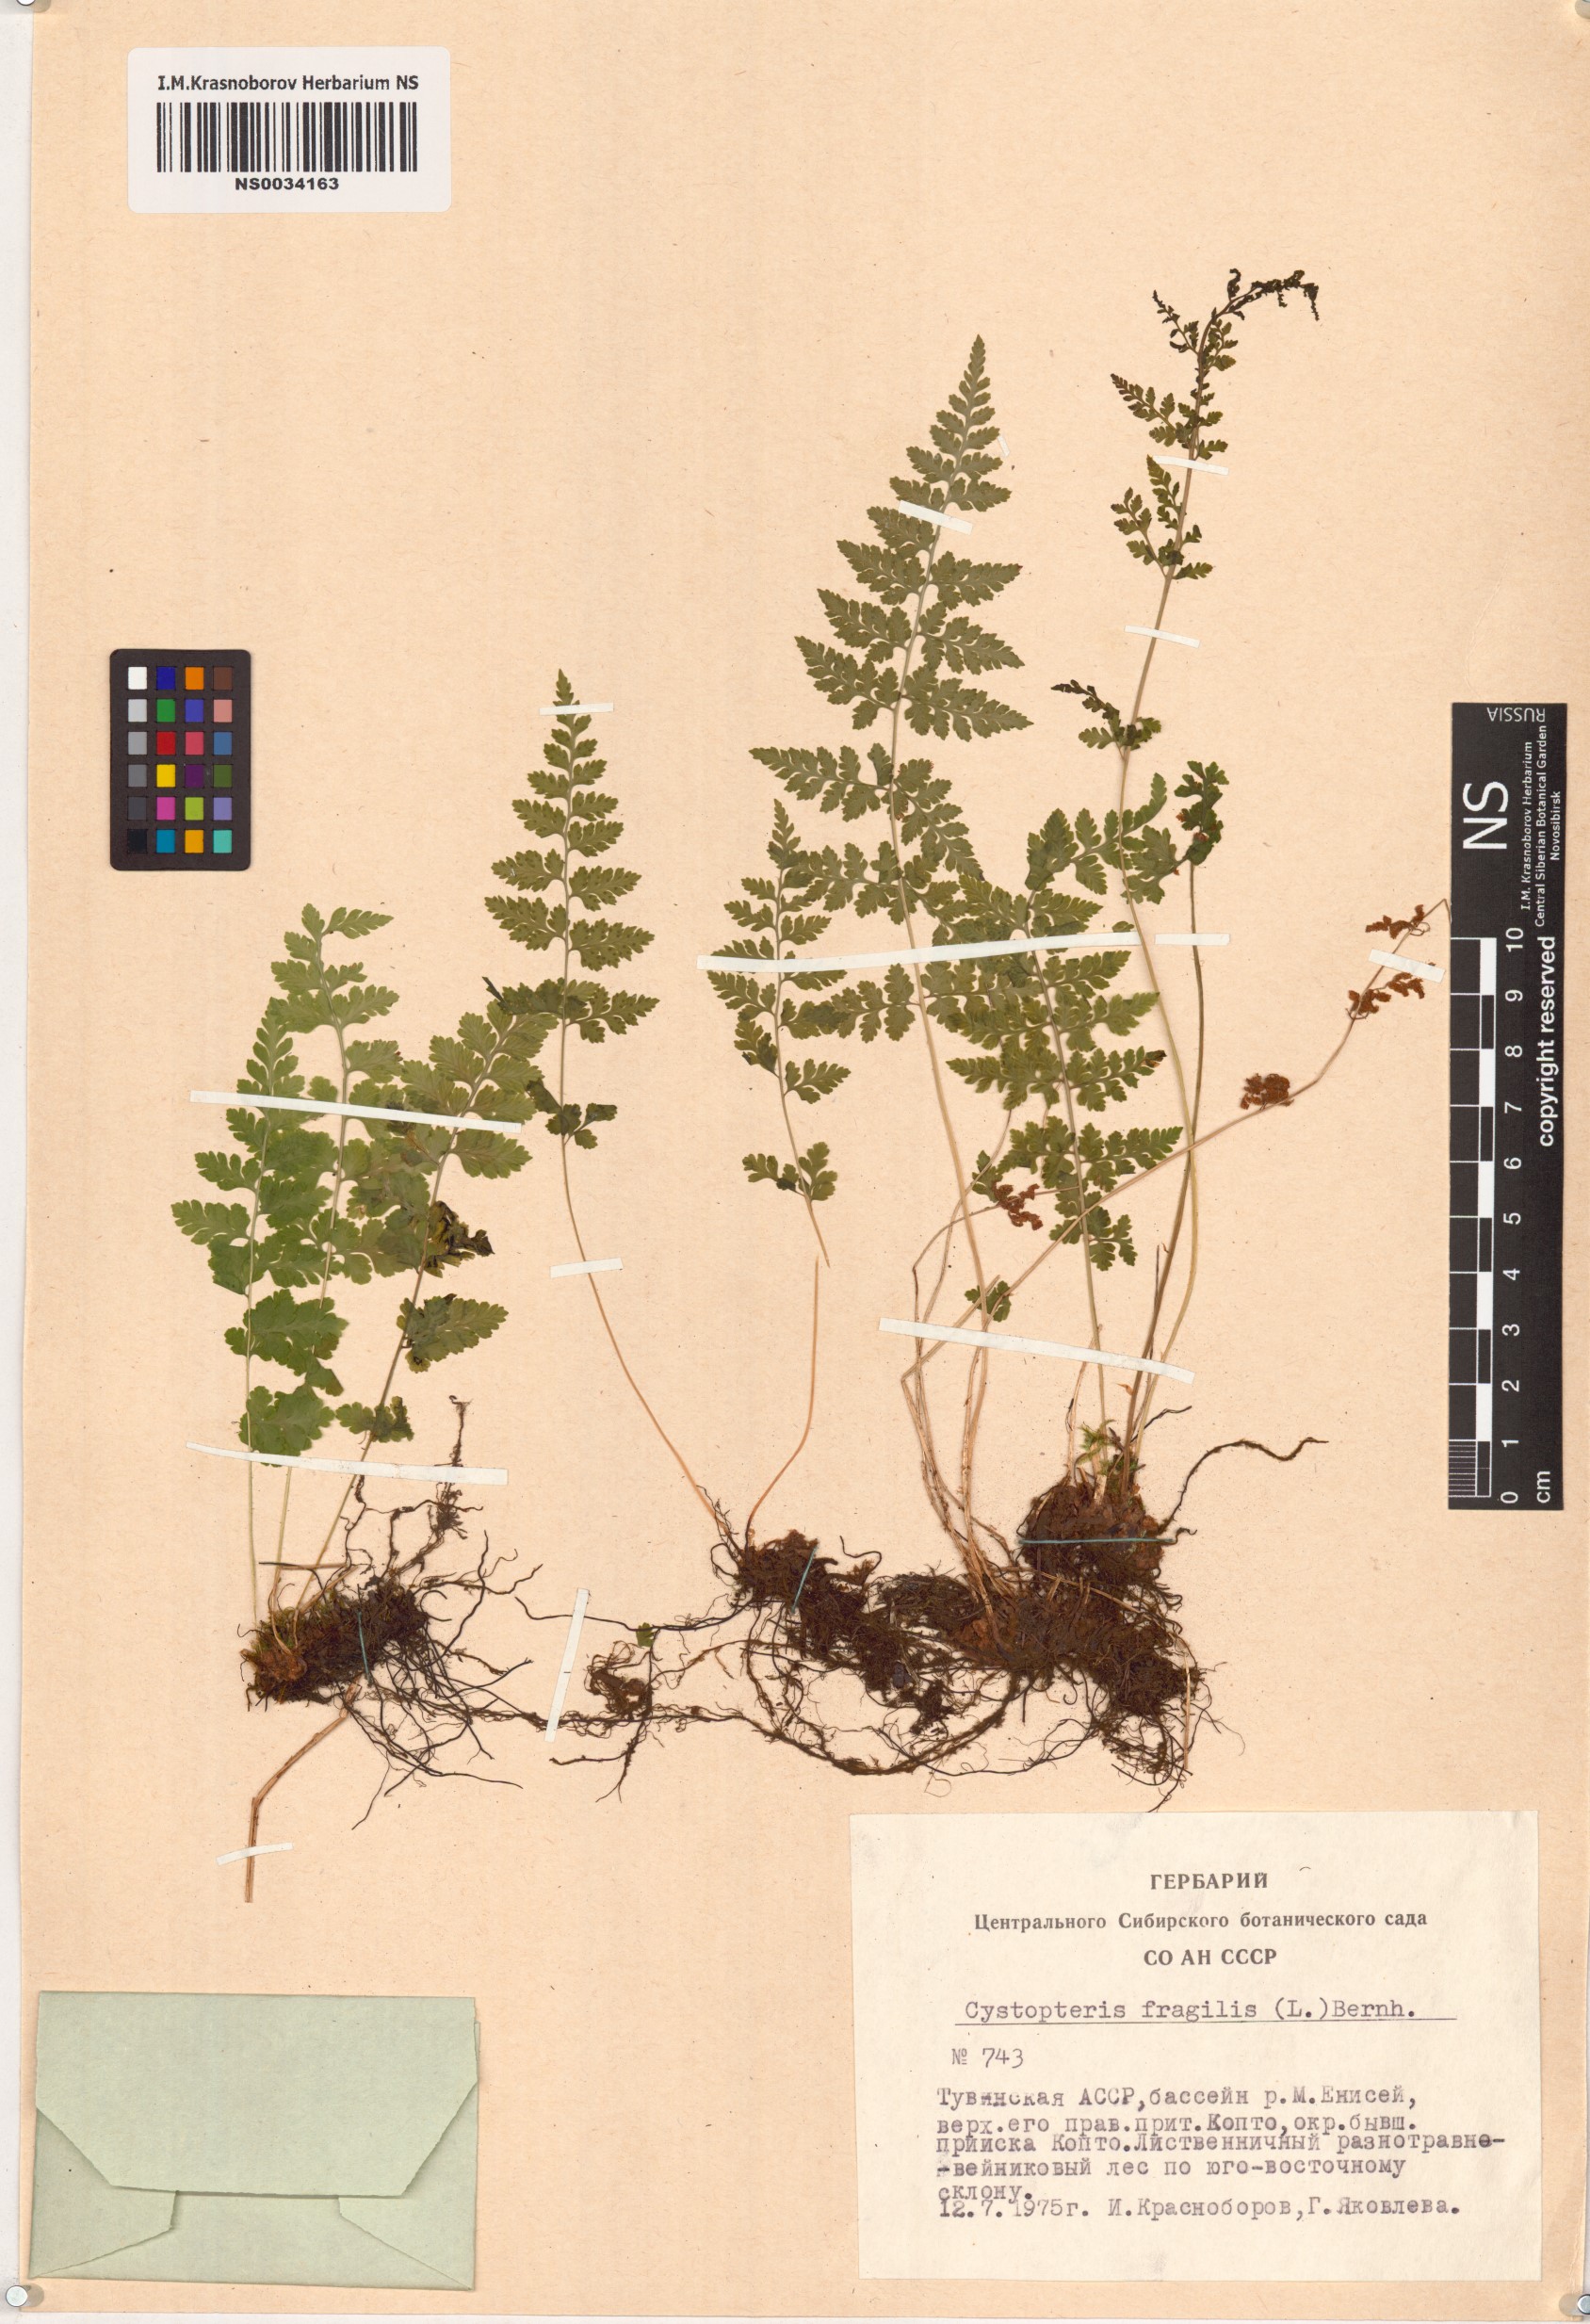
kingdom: Plantae
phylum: Tracheophyta
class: Polypodiopsida
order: Polypodiales
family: Cystopteridaceae
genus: Cystopteris
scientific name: Cystopteris fragilis
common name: Brittle bladder fern
